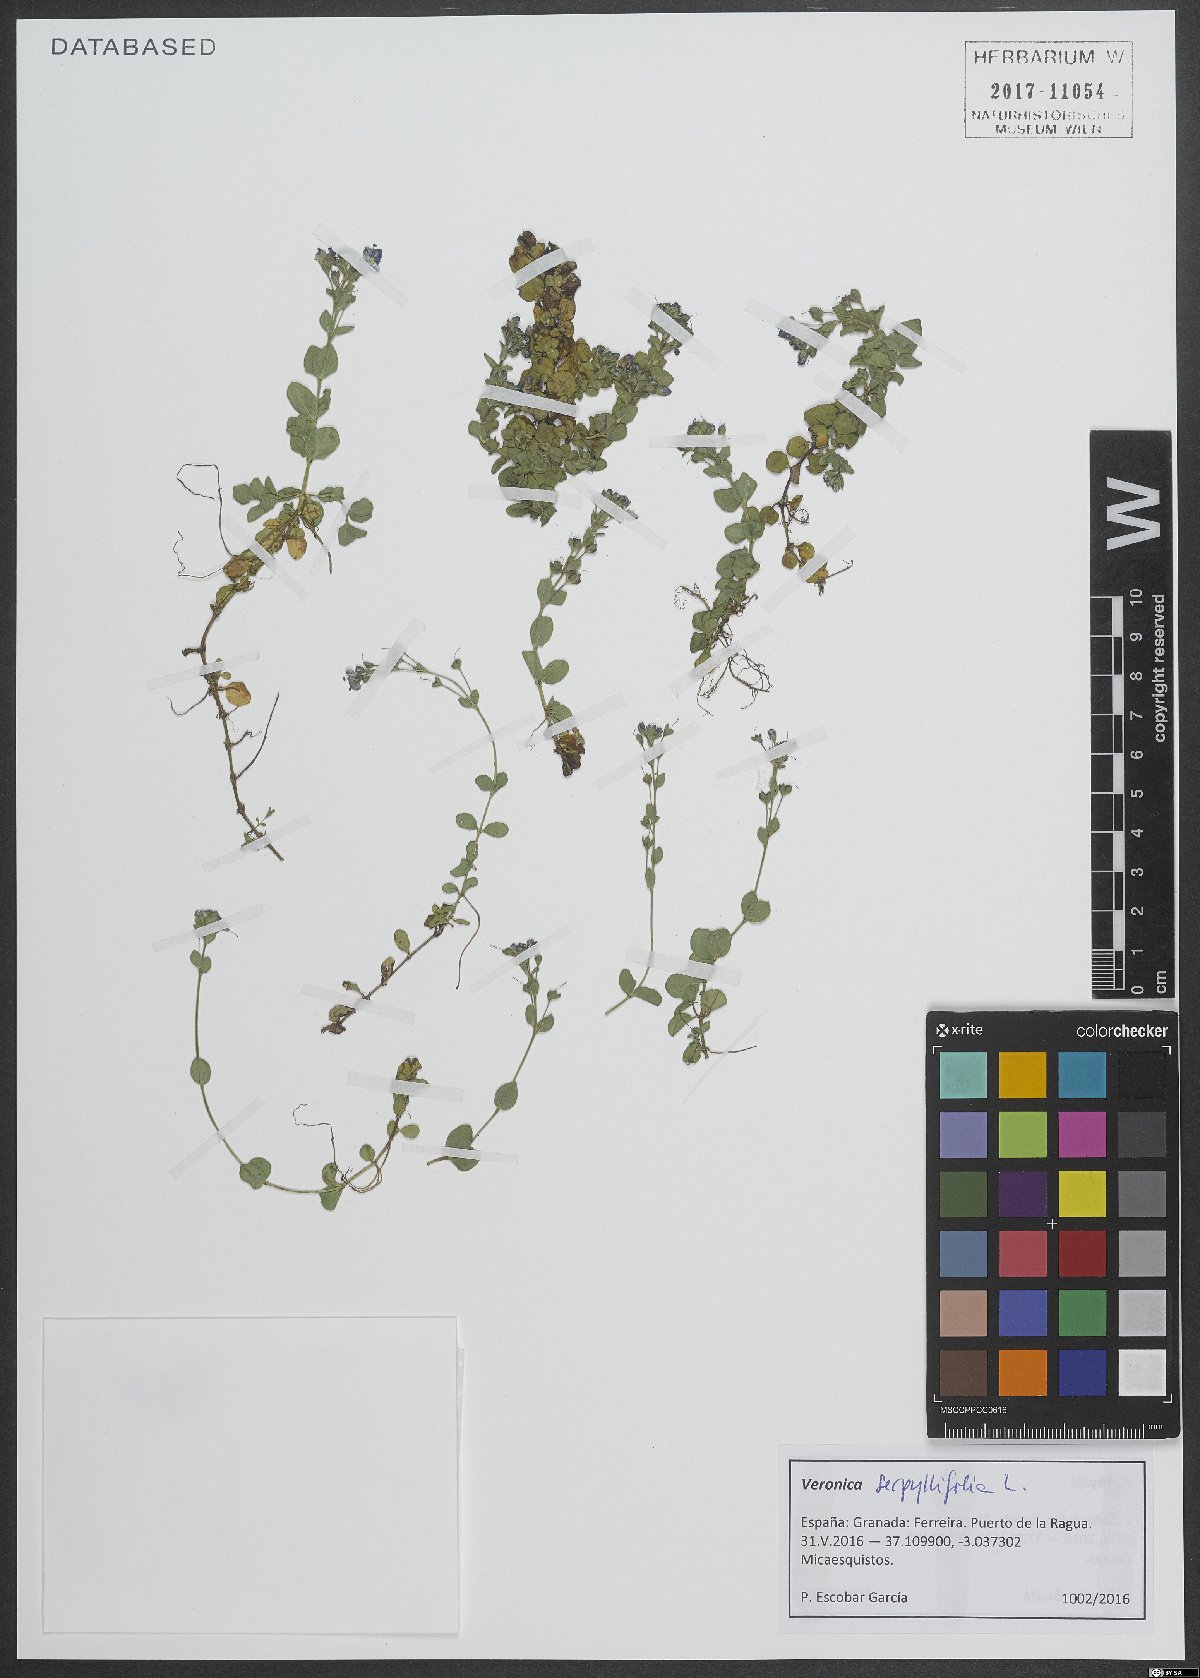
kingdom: Plantae
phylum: Tracheophyta
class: Magnoliopsida
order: Lamiales
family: Plantaginaceae
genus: Veronica
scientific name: Veronica serpyllifolia
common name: Thyme-leaved speedwell
